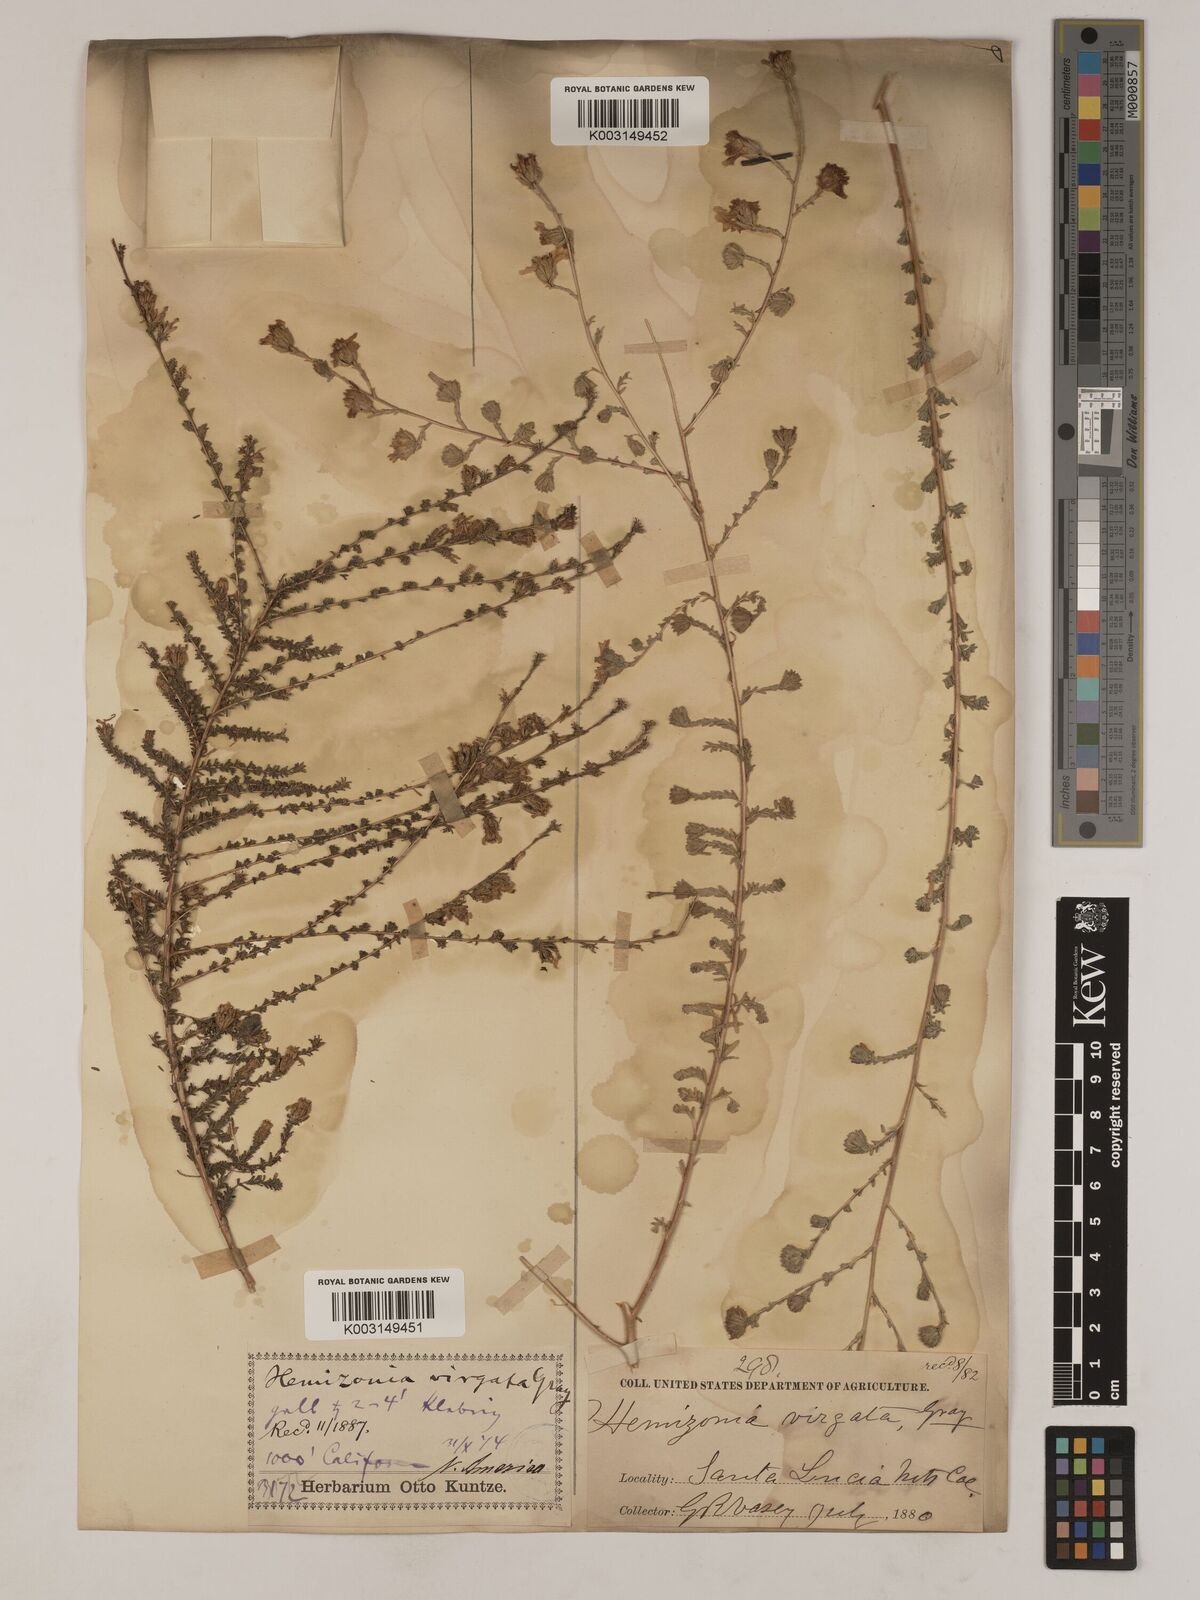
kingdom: Plantae
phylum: Tracheophyta
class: Magnoliopsida
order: Asterales
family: Asteraceae
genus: Holocarpha
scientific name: Holocarpha virgata
